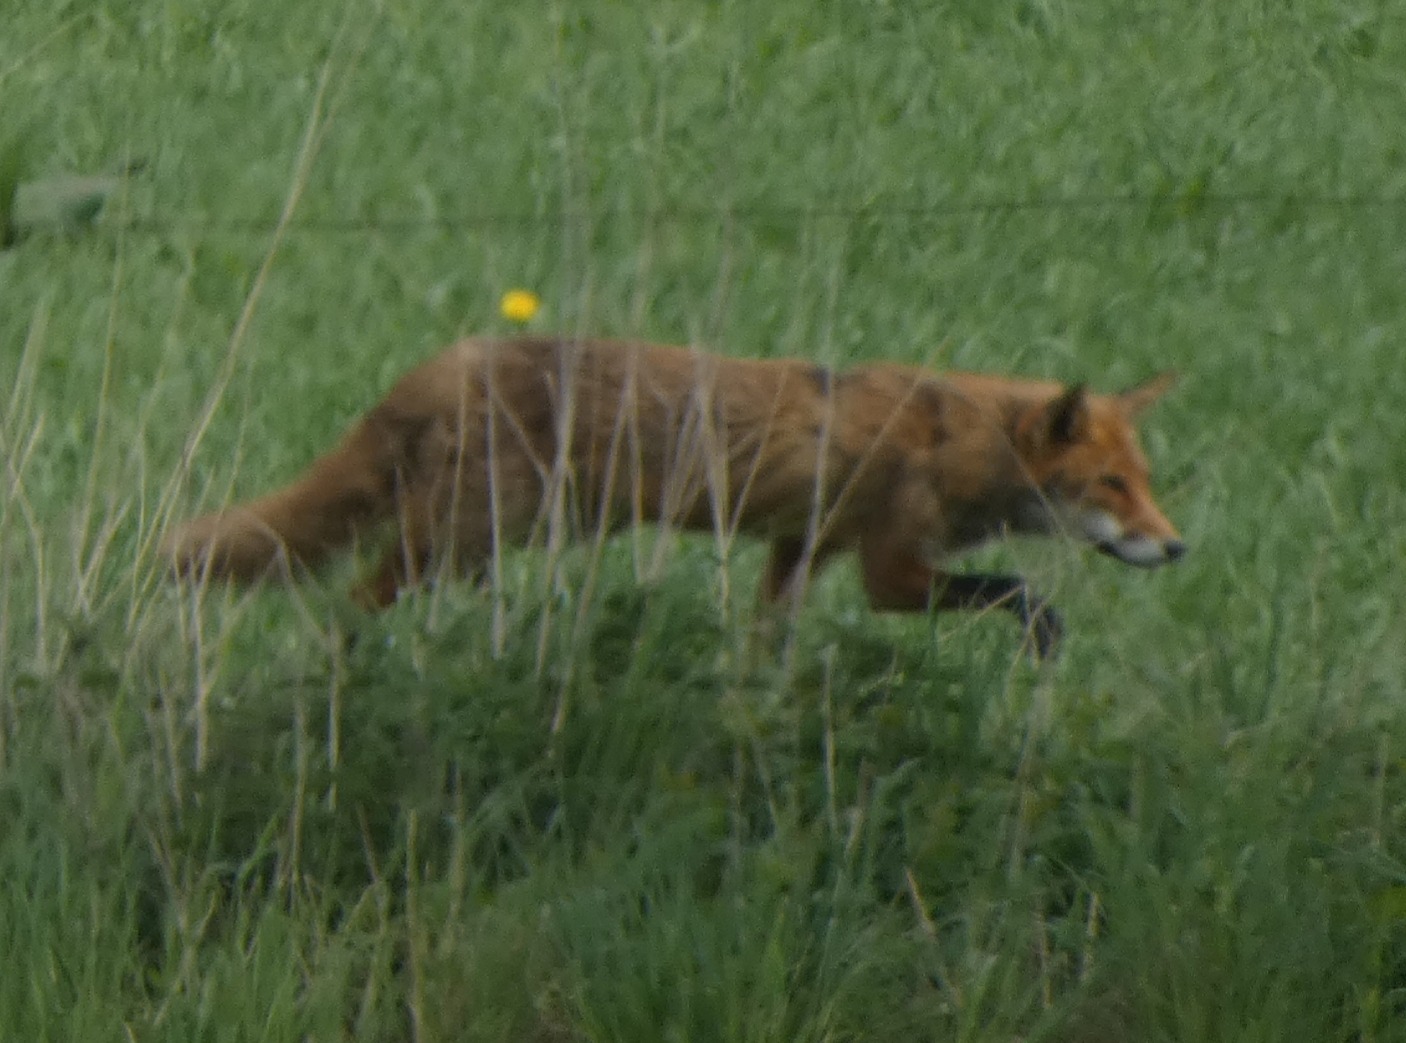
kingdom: Animalia
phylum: Chordata
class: Mammalia
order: Carnivora
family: Canidae
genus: Vulpes
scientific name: Vulpes vulpes
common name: Ræv
